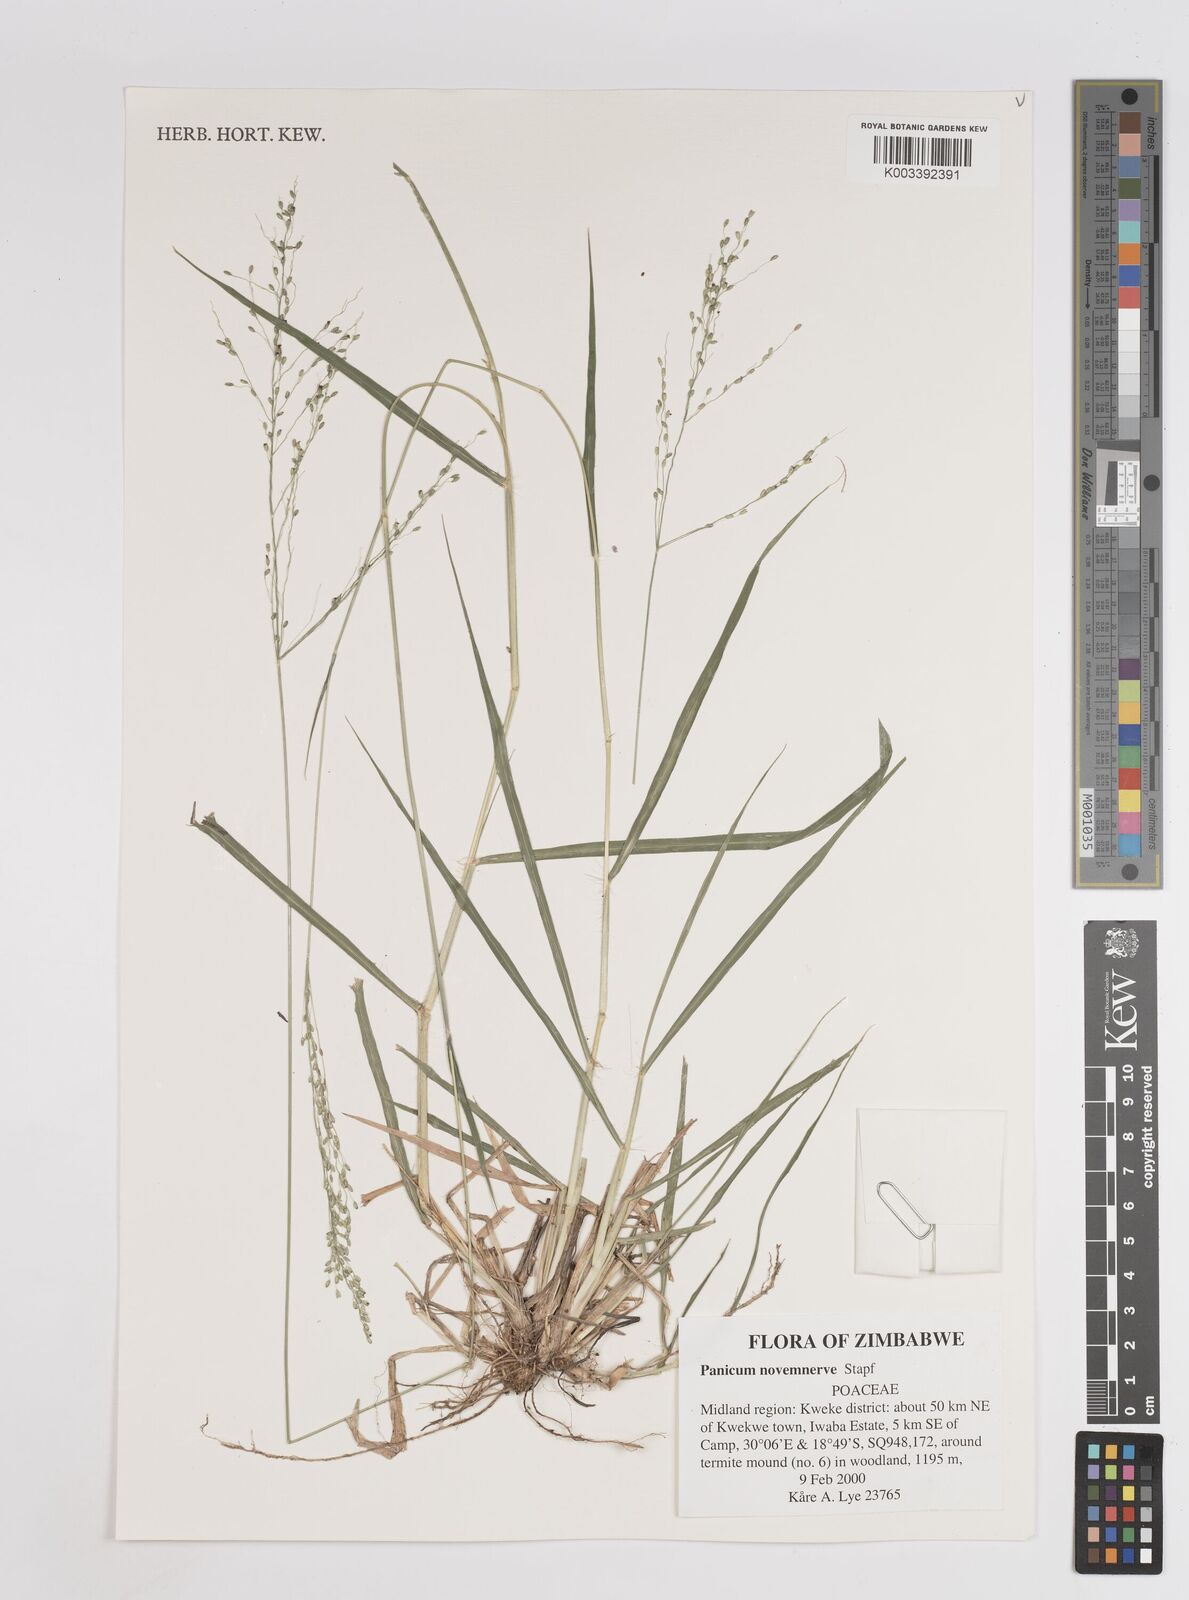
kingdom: Plantae
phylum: Tracheophyta
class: Liliopsida
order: Poales
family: Poaceae
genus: Panicum
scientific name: Panicum novemnerve
